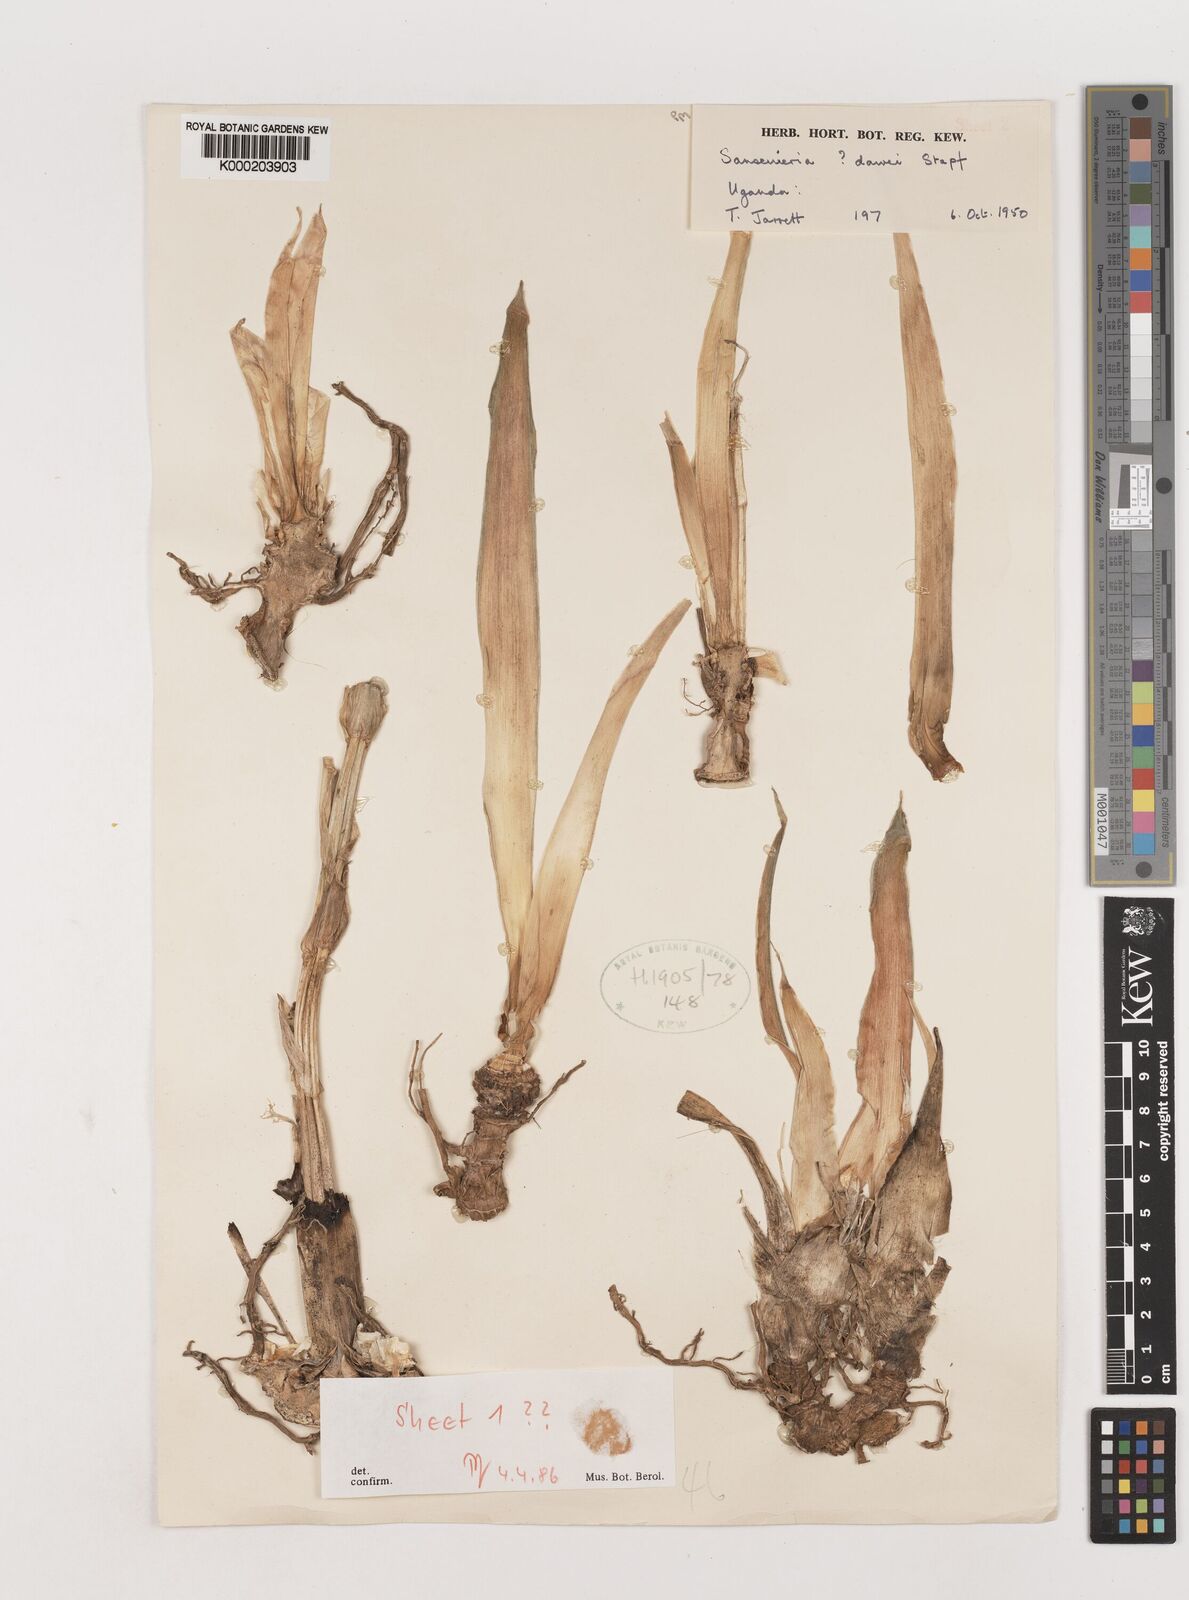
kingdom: Plantae
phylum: Tracheophyta
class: Liliopsida
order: Asparagales
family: Asparagaceae
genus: Dracaena
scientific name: Dracaena dawei
